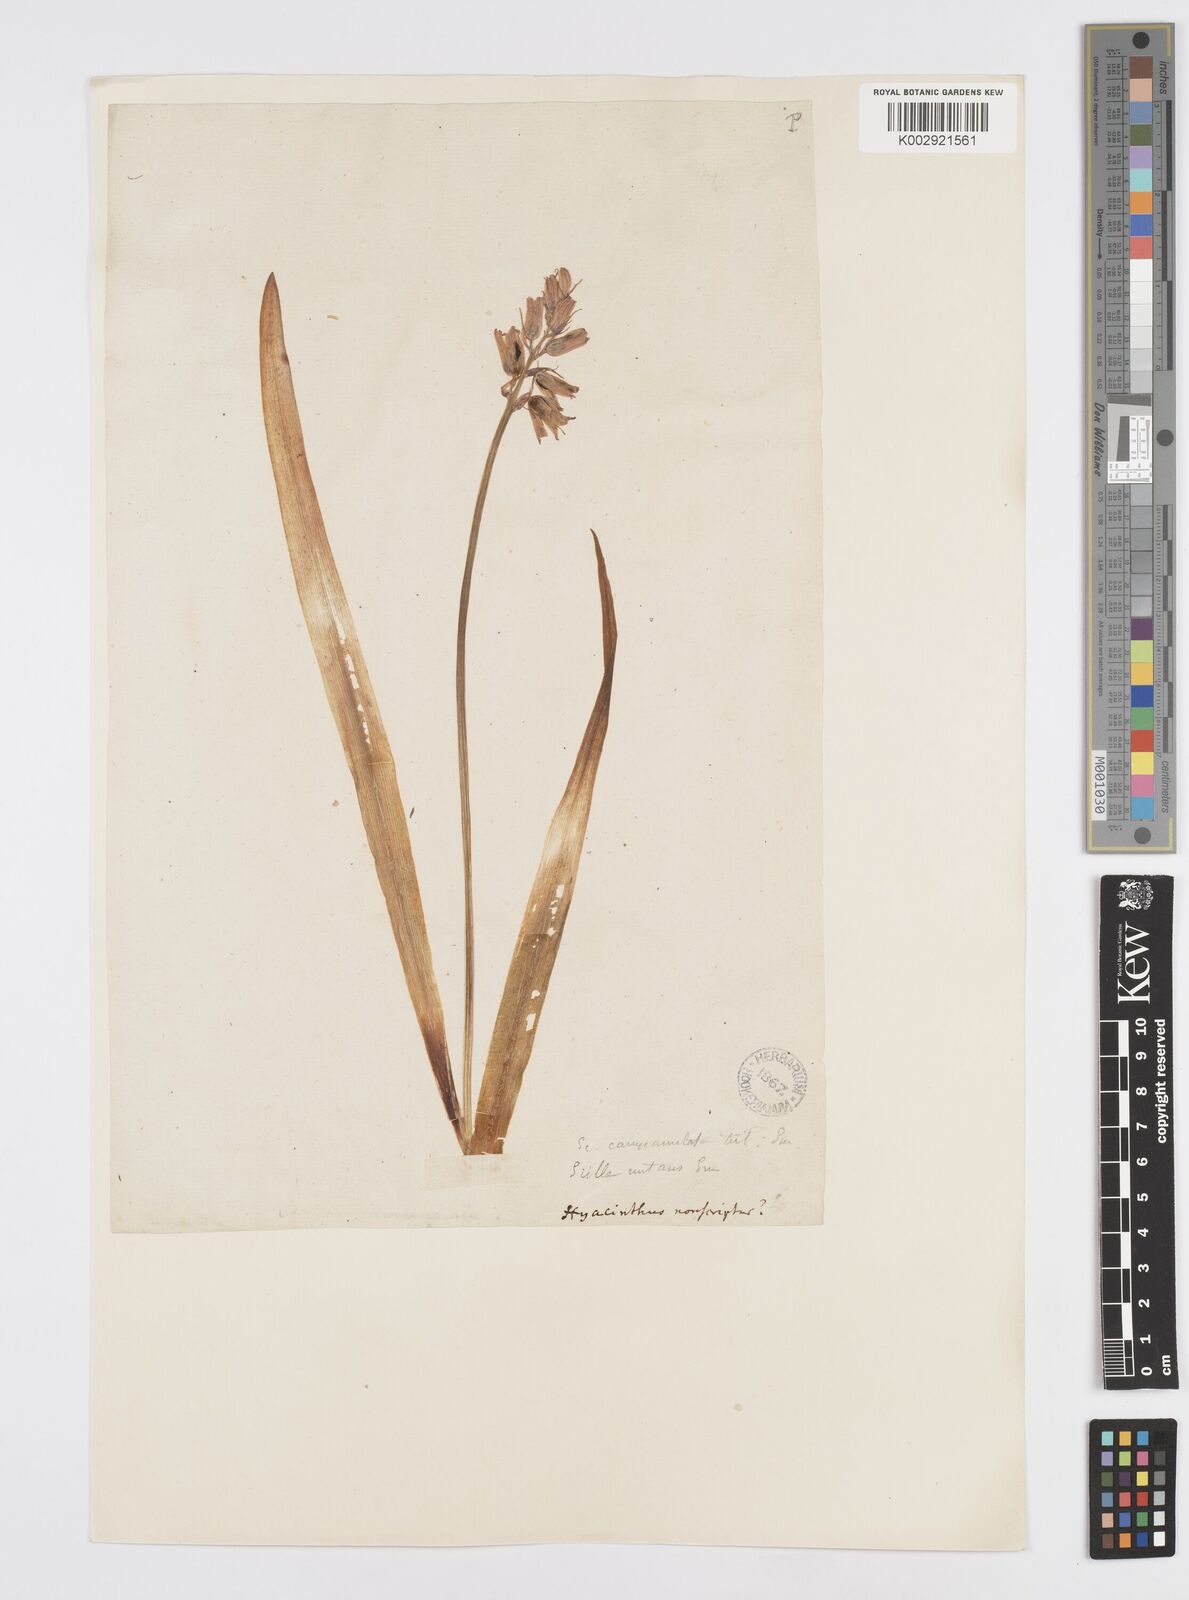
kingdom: Plantae
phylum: Tracheophyta
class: Liliopsida
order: Asparagales
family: Asparagaceae
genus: Hyacinthoides
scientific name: Hyacinthoides non-scripta
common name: Bluebell
